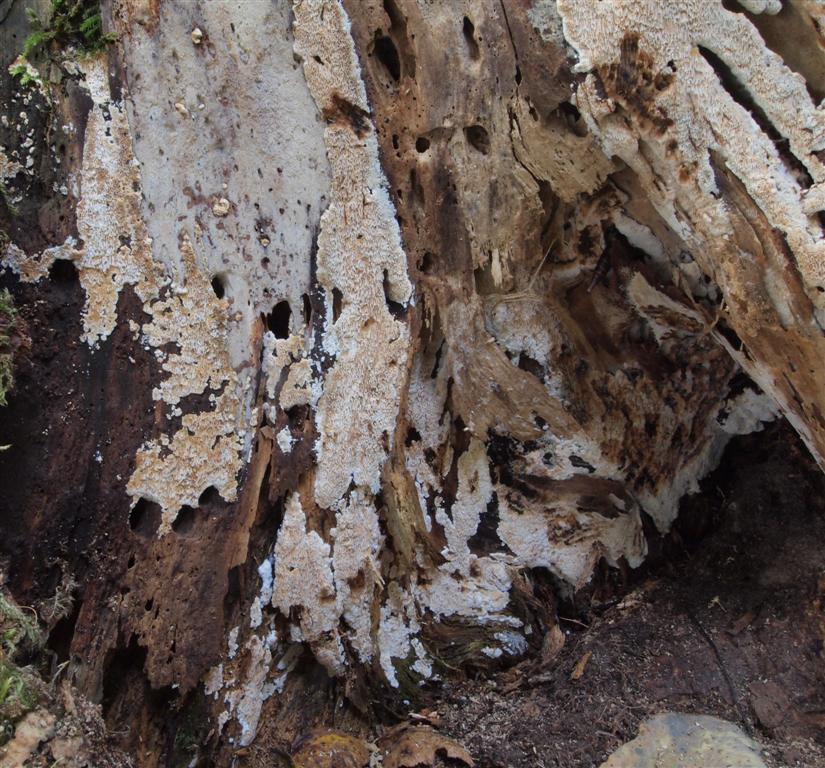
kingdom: Fungi
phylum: Basidiomycota
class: Agaricomycetes
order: Polyporales
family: Meripilaceae
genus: Rigidoporus
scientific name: Rigidoporus sanguinolentus
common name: blod-skorpeporesvamp
